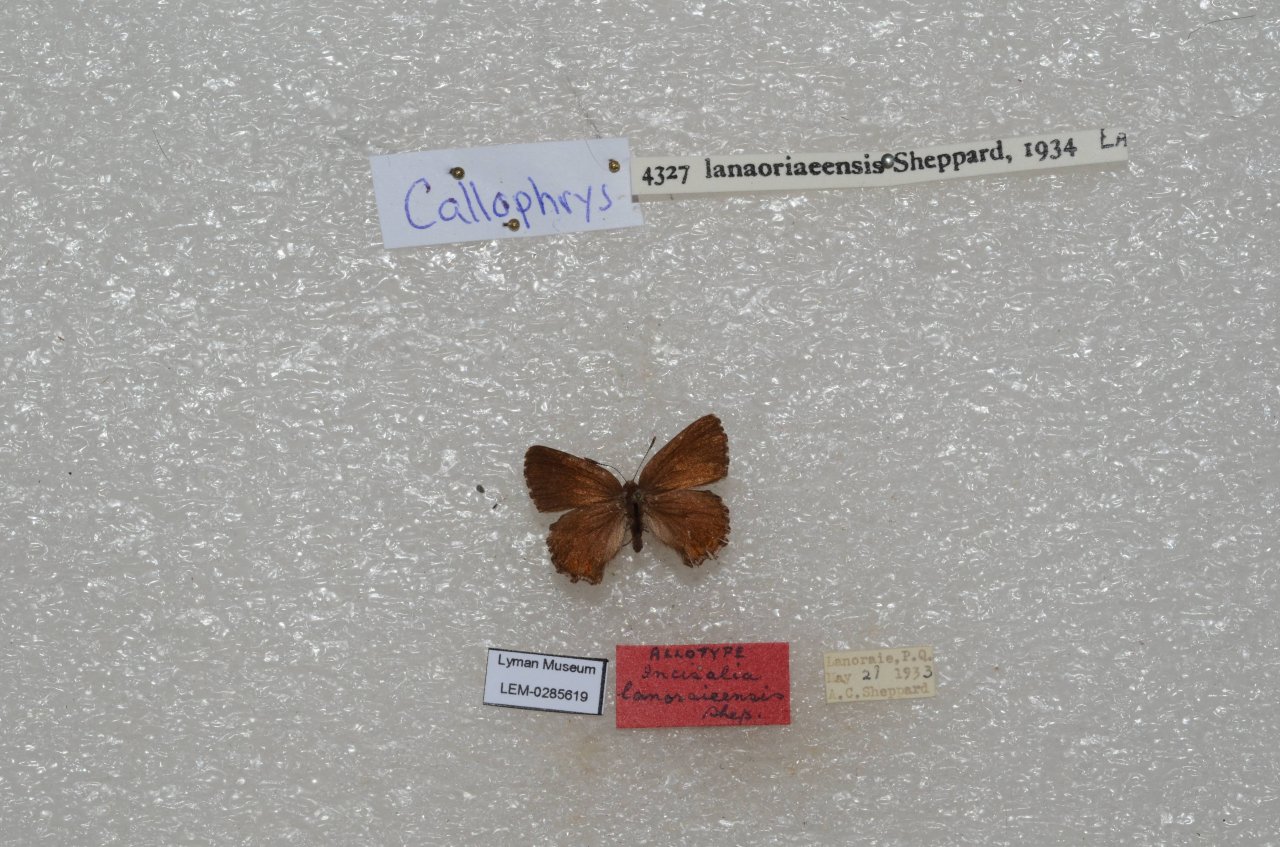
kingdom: Animalia
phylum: Arthropoda
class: Insecta
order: Lepidoptera
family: Lycaenidae
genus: Incisalia
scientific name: Incisalia lanoraieensis
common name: Bog Elfin
